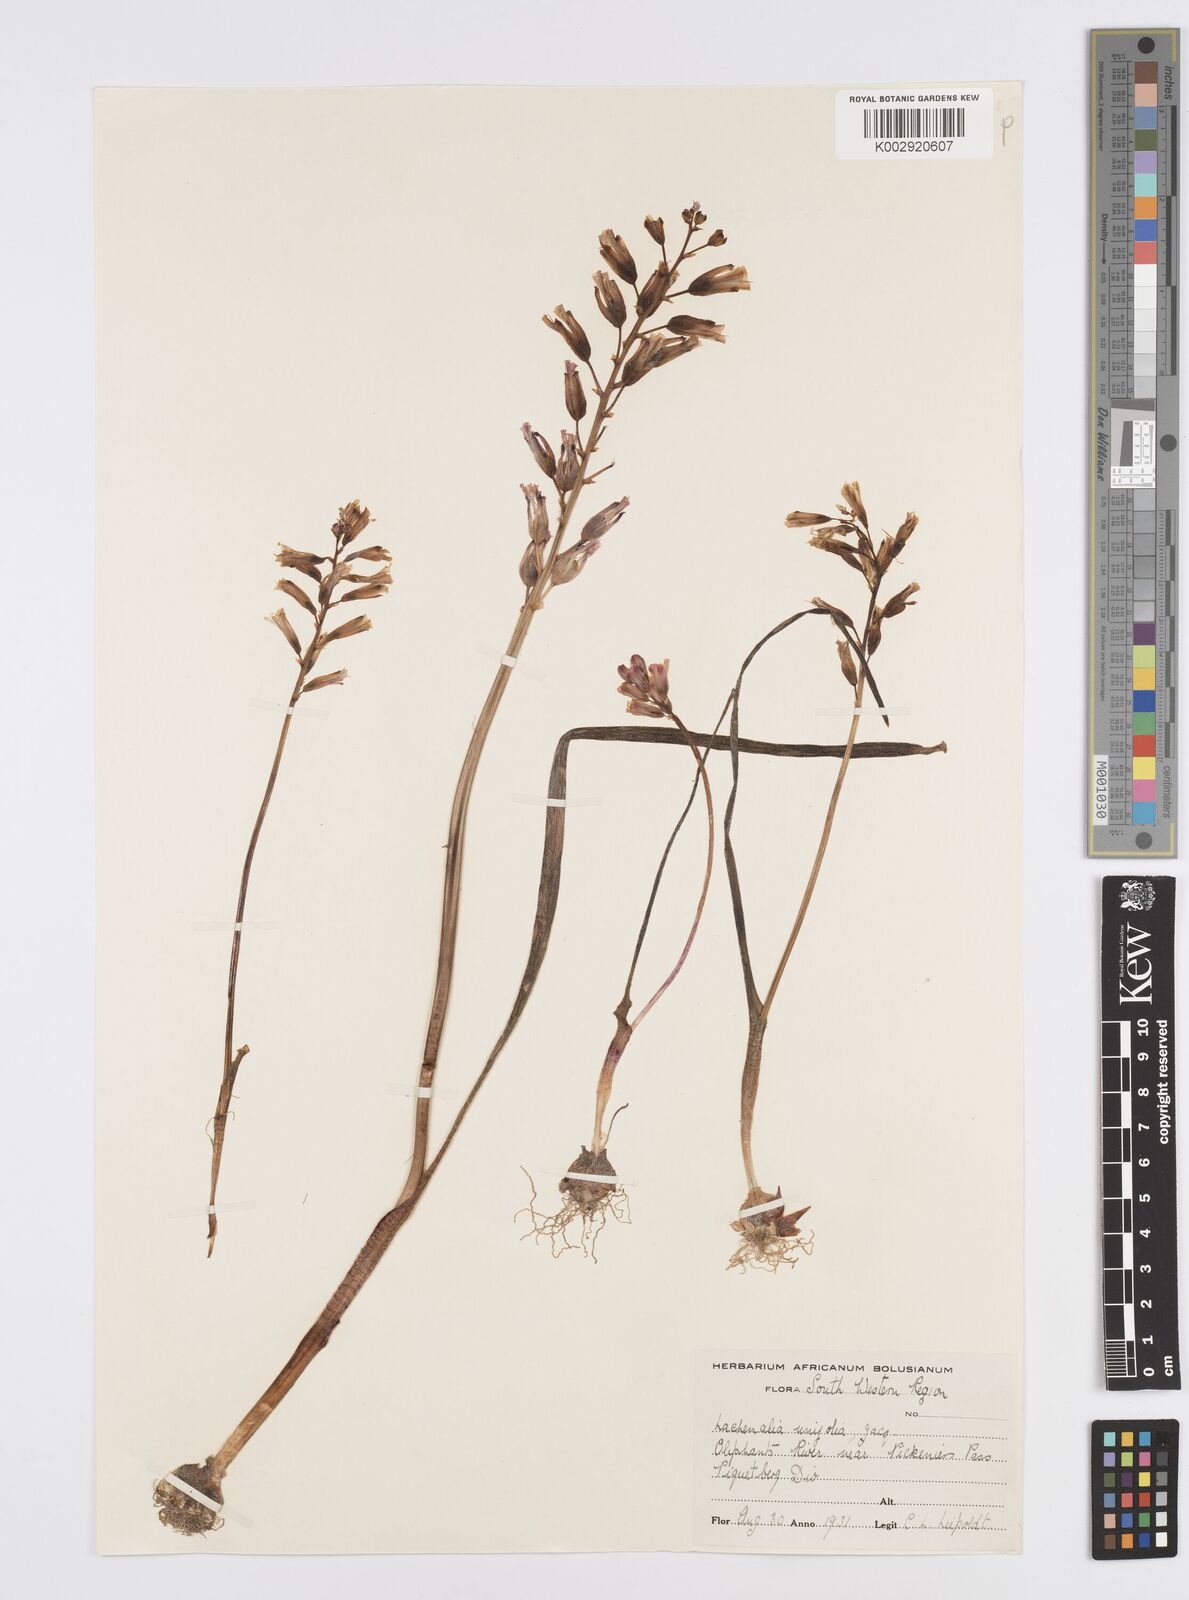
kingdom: Plantae
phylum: Tracheophyta
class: Liliopsida
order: Asparagales
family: Asparagaceae
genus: Lachenalia
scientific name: Lachenalia unifolia
